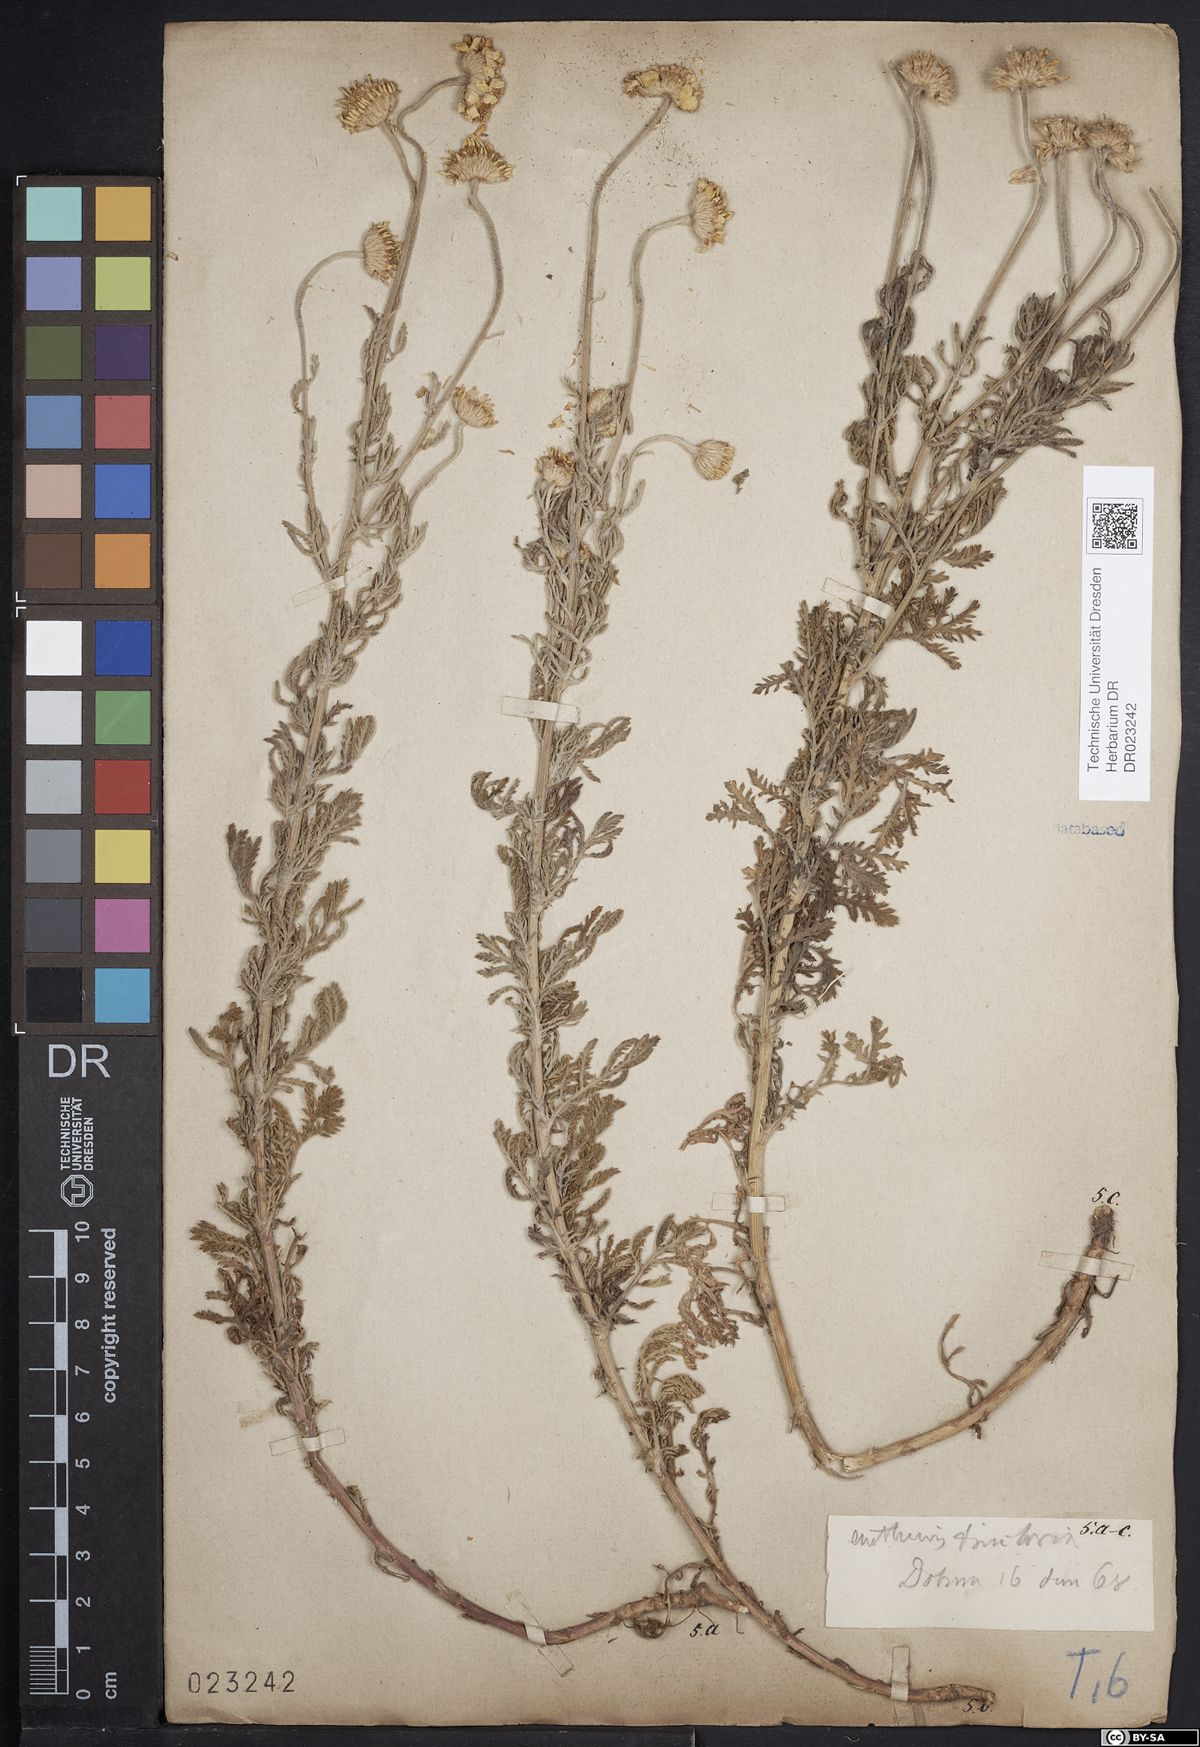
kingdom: Plantae
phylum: Tracheophyta
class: Magnoliopsida
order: Asterales
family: Asteraceae
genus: Cota
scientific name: Cota tinctoria
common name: Golden chamomile
